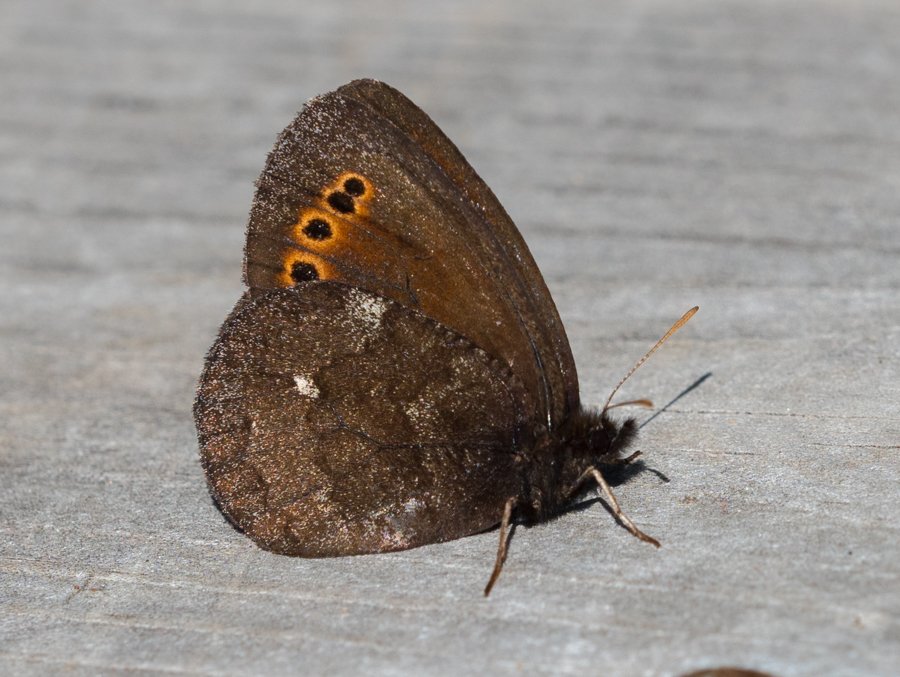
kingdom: Animalia
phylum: Arthropoda
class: Insecta
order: Lepidoptera
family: Nymphalidae
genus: Erebia
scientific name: Erebia disa
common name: Taiga Alpine
